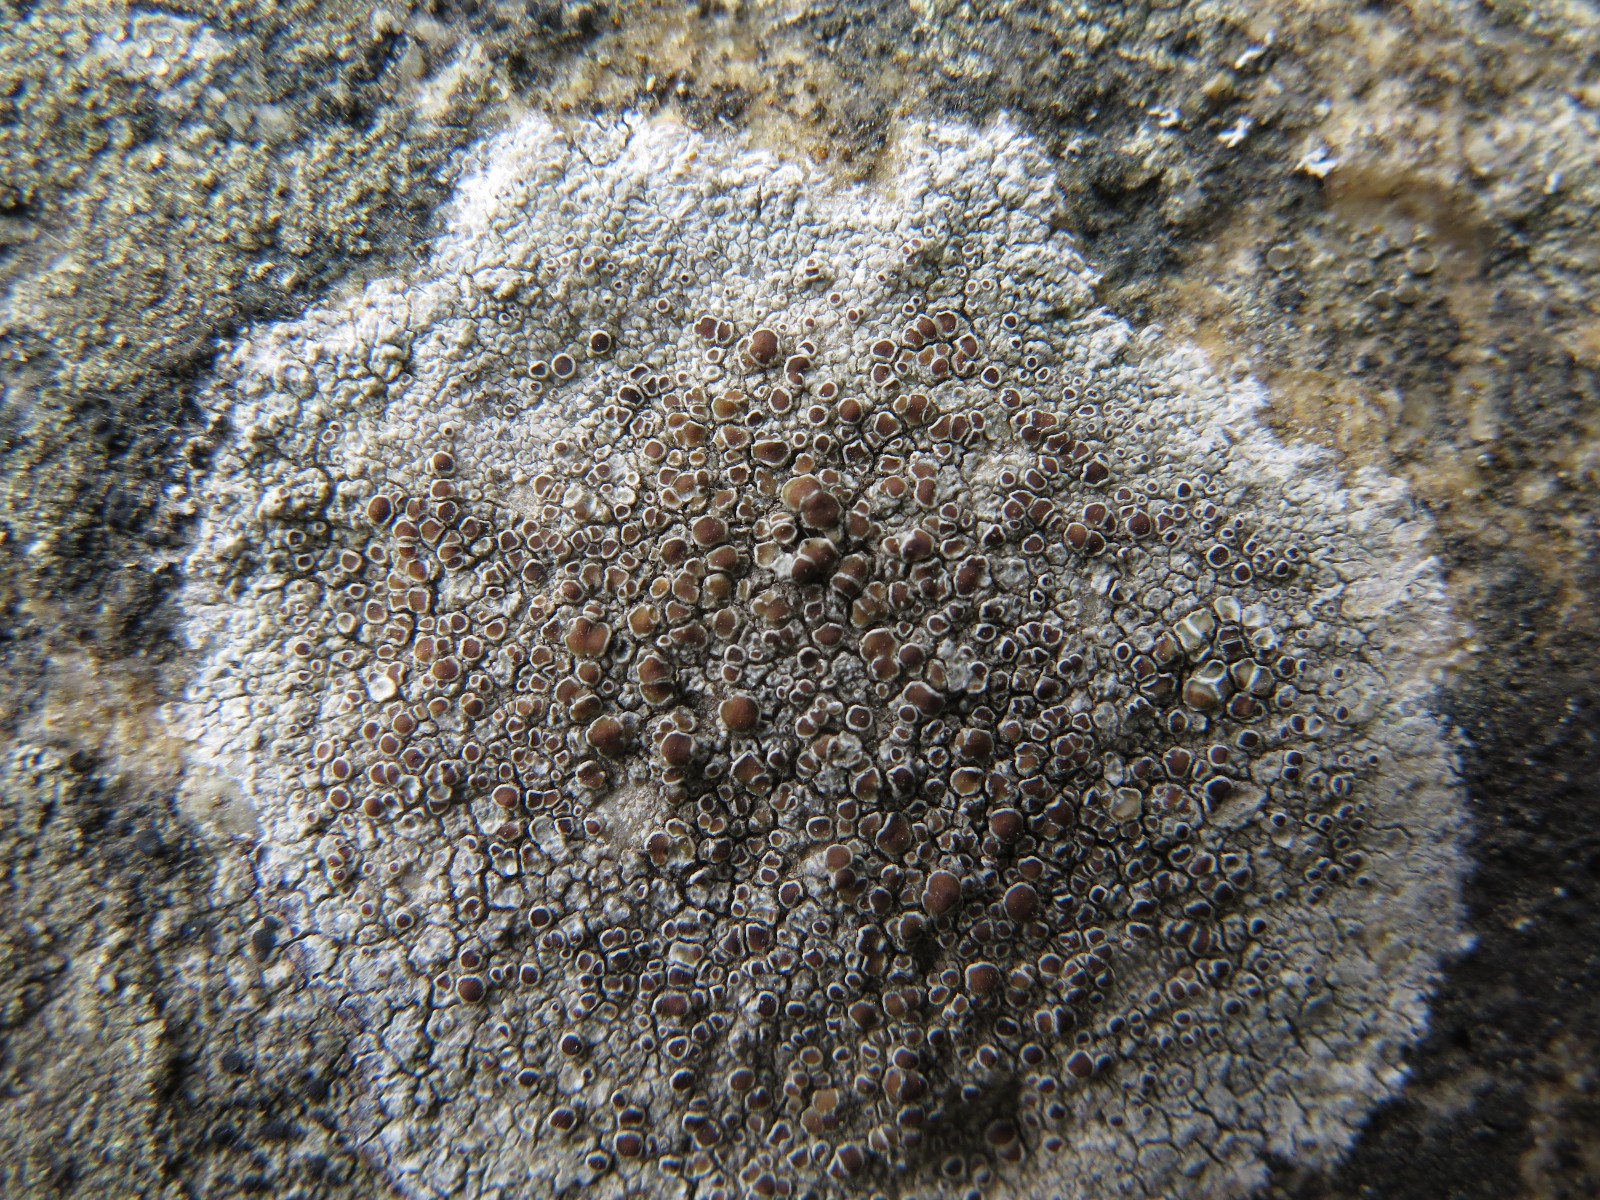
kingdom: Fungi
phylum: Ascomycota
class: Lecanoromycetes
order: Lecanorales
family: Lecanoraceae
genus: Lecanora
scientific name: Lecanora campestris
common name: mur-kantskivelav
